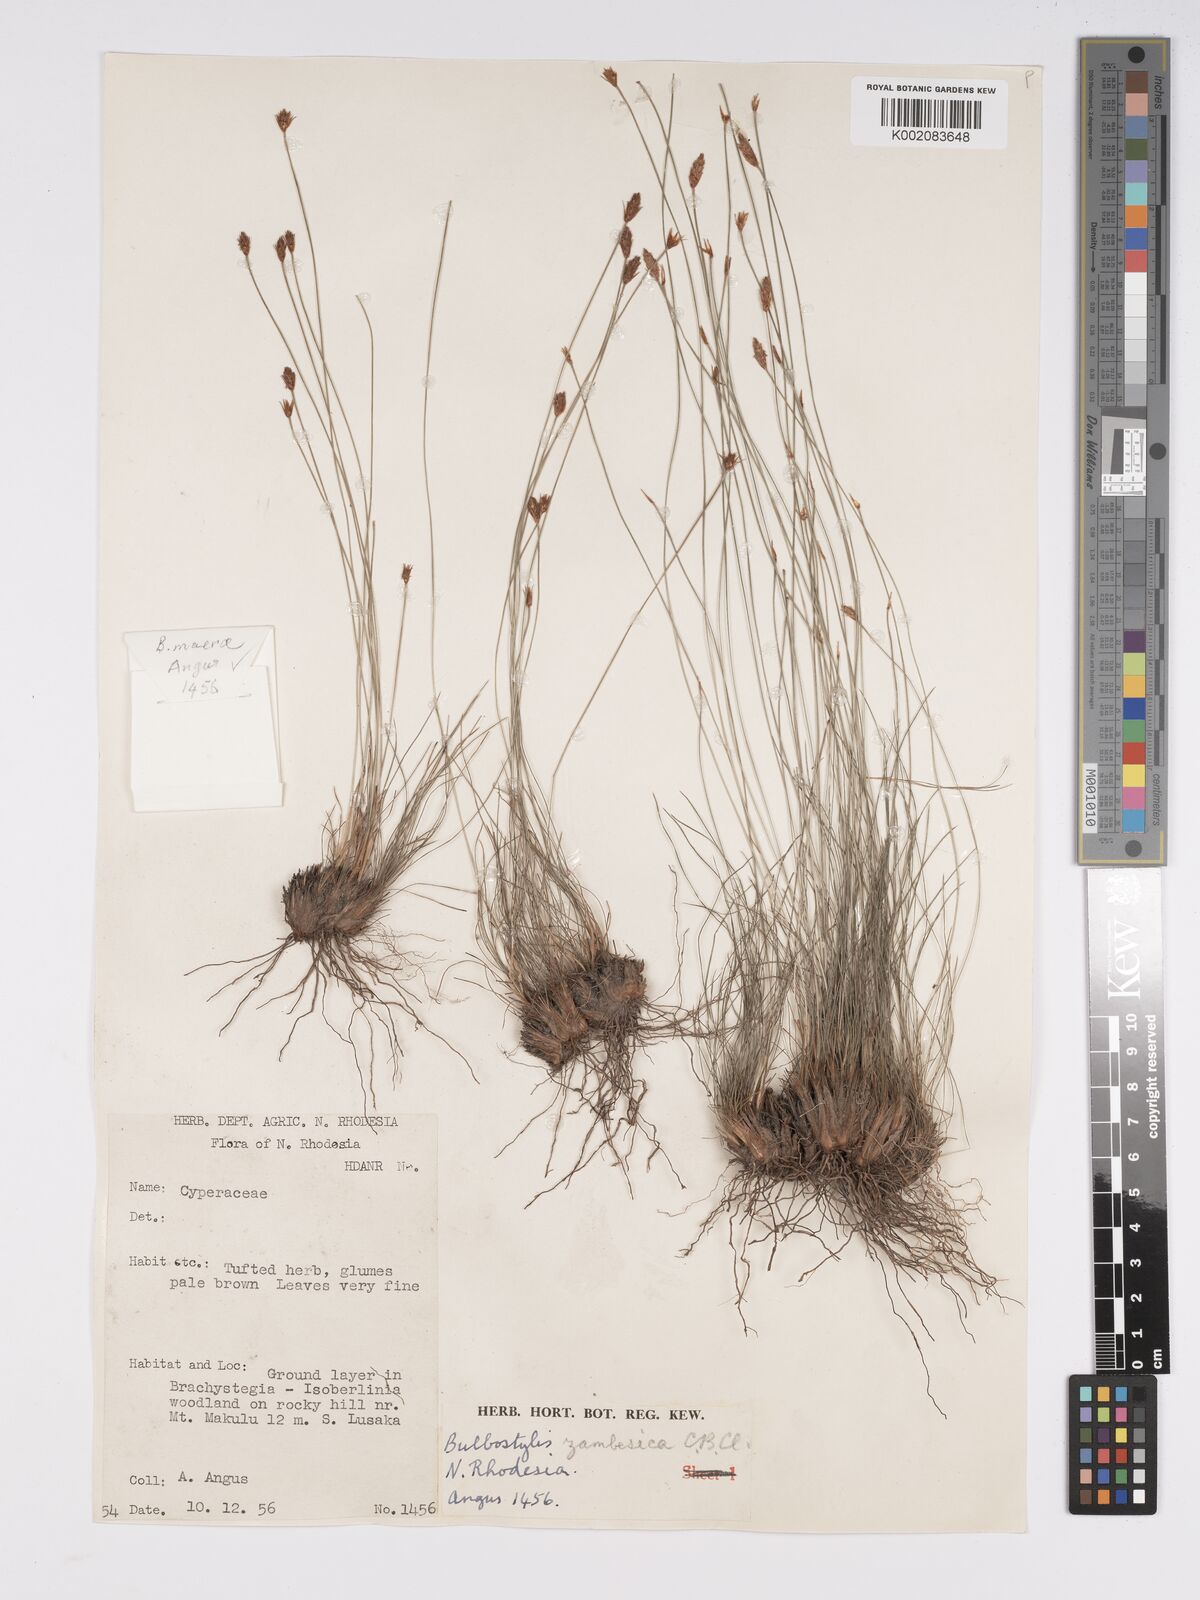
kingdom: Plantae
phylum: Tracheophyta
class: Liliopsida
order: Poales
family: Cyperaceae
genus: Bulbostylis
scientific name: Bulbostylis macra
